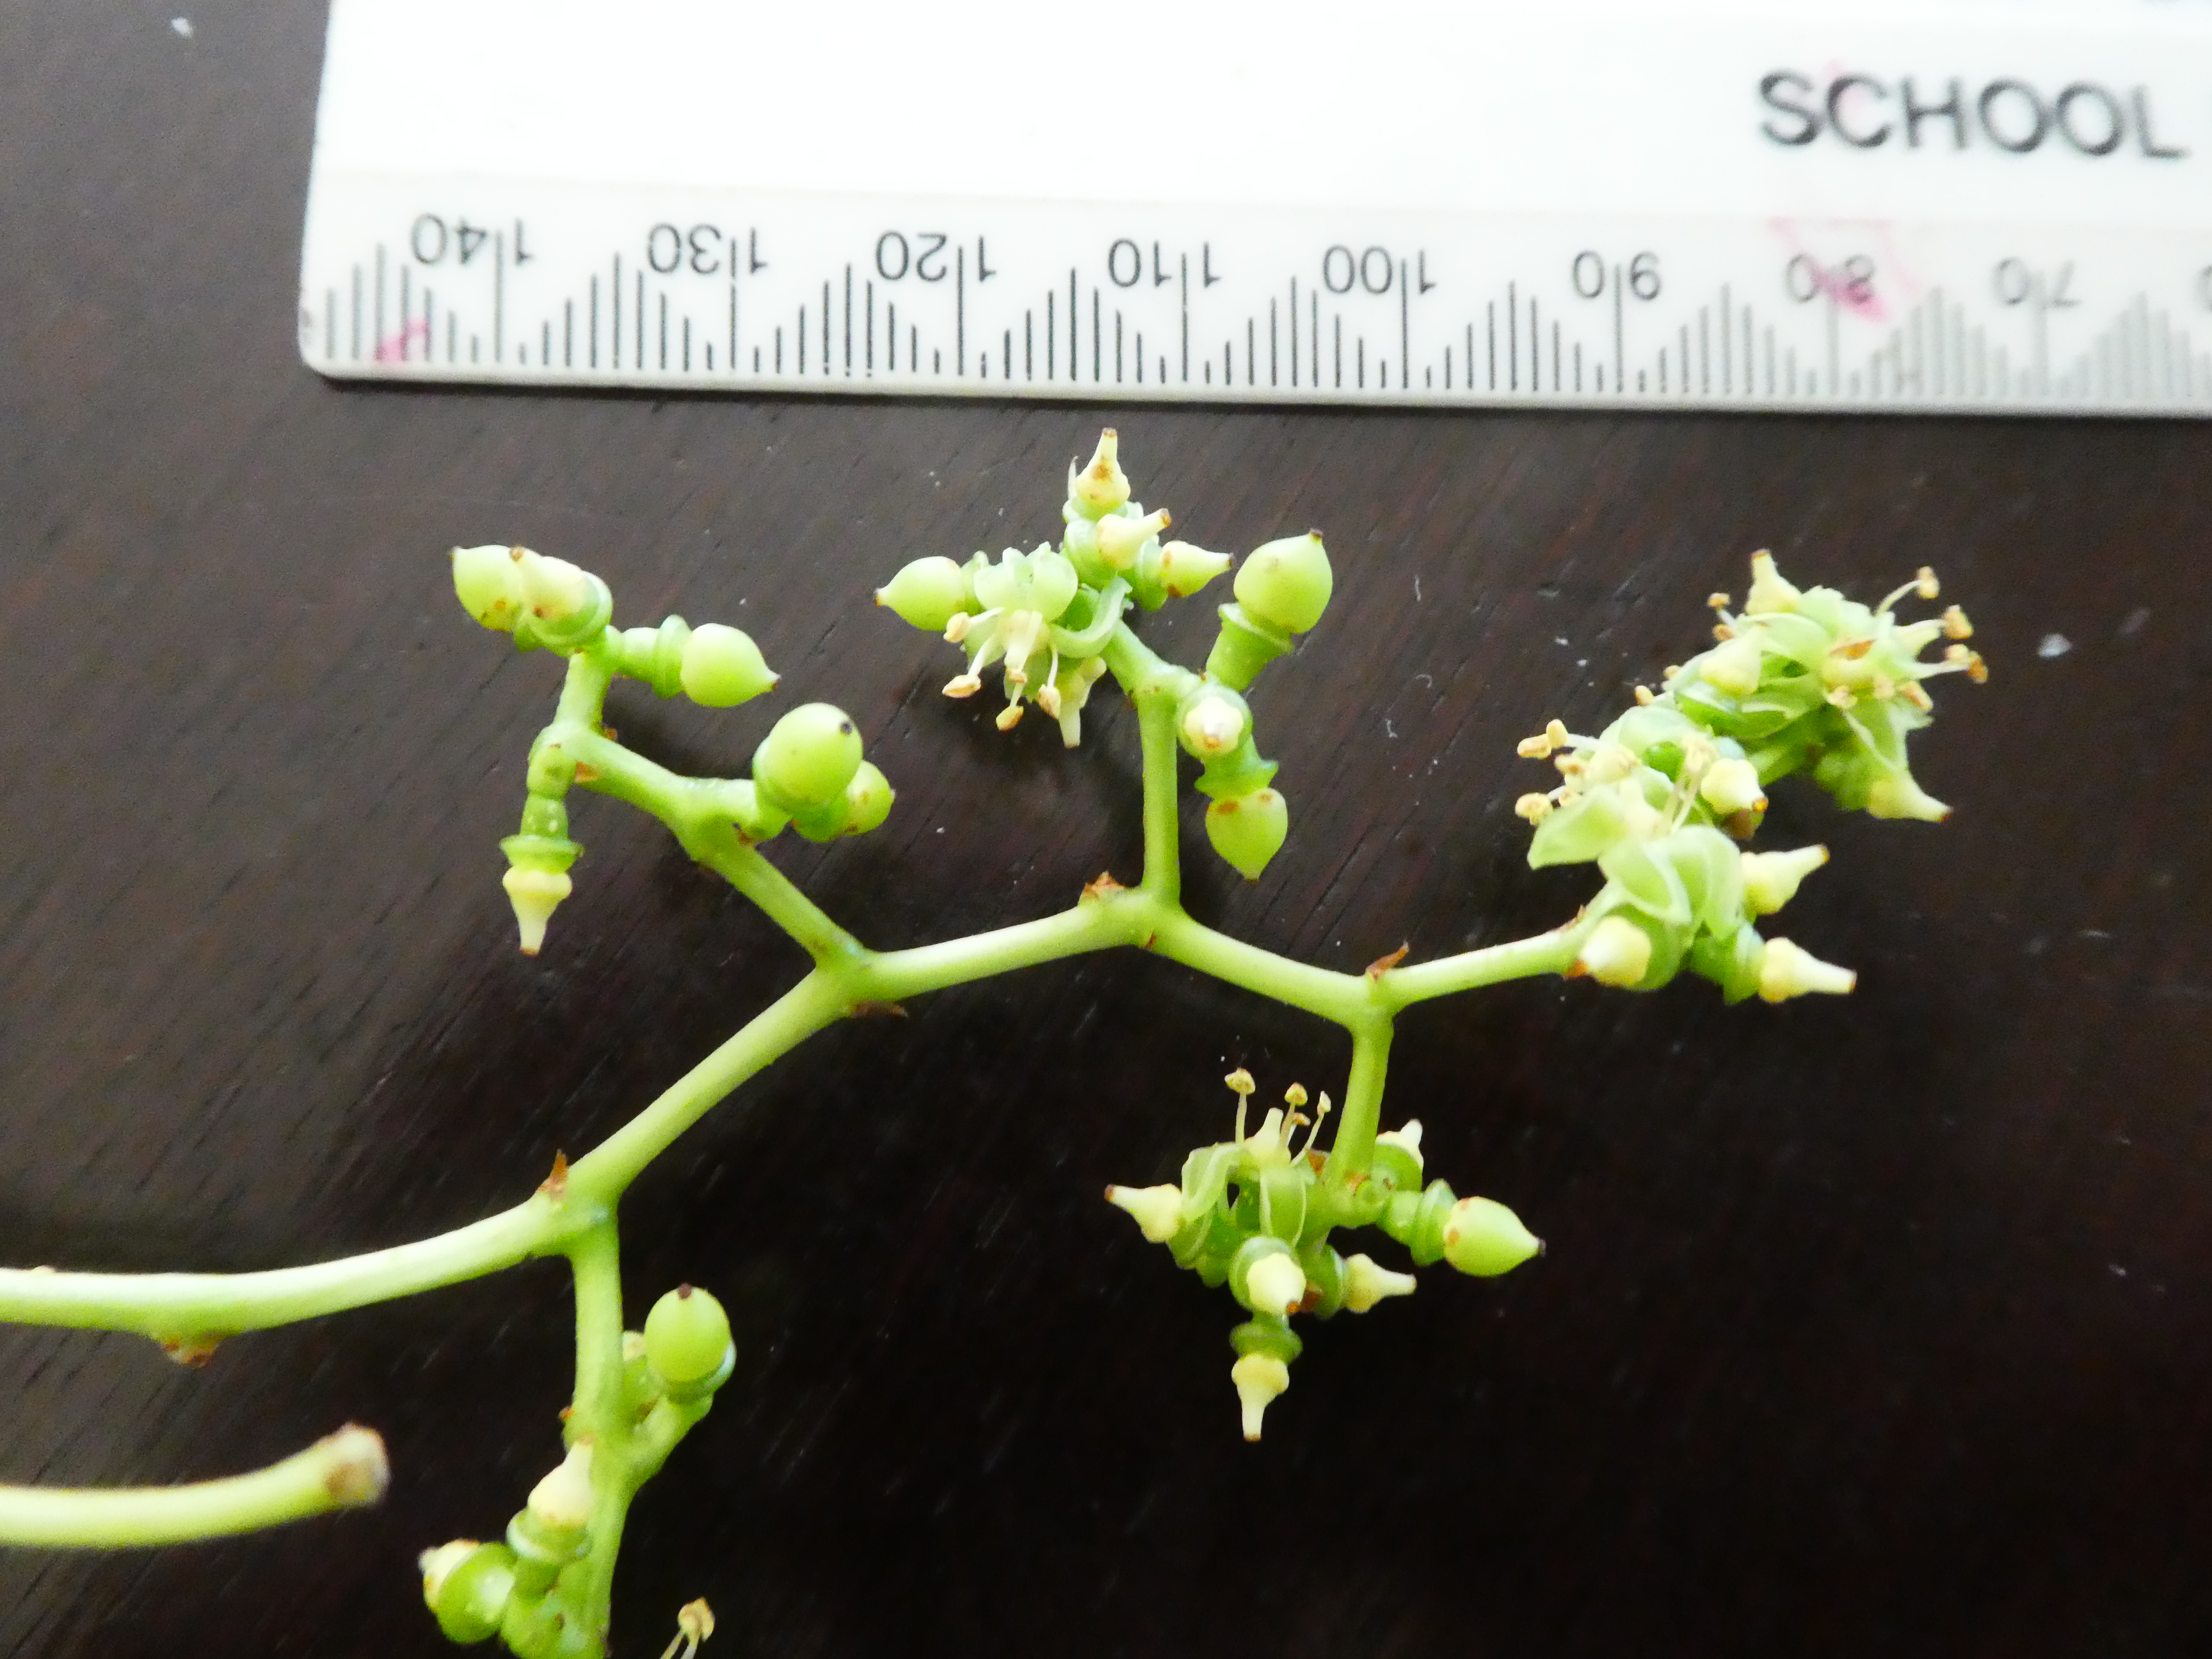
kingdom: Plantae
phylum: Tracheophyta
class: Magnoliopsida
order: Vitales
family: Vitaceae
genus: Parthenocissus
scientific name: Parthenocissus tricuspidata
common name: Boston ivy
